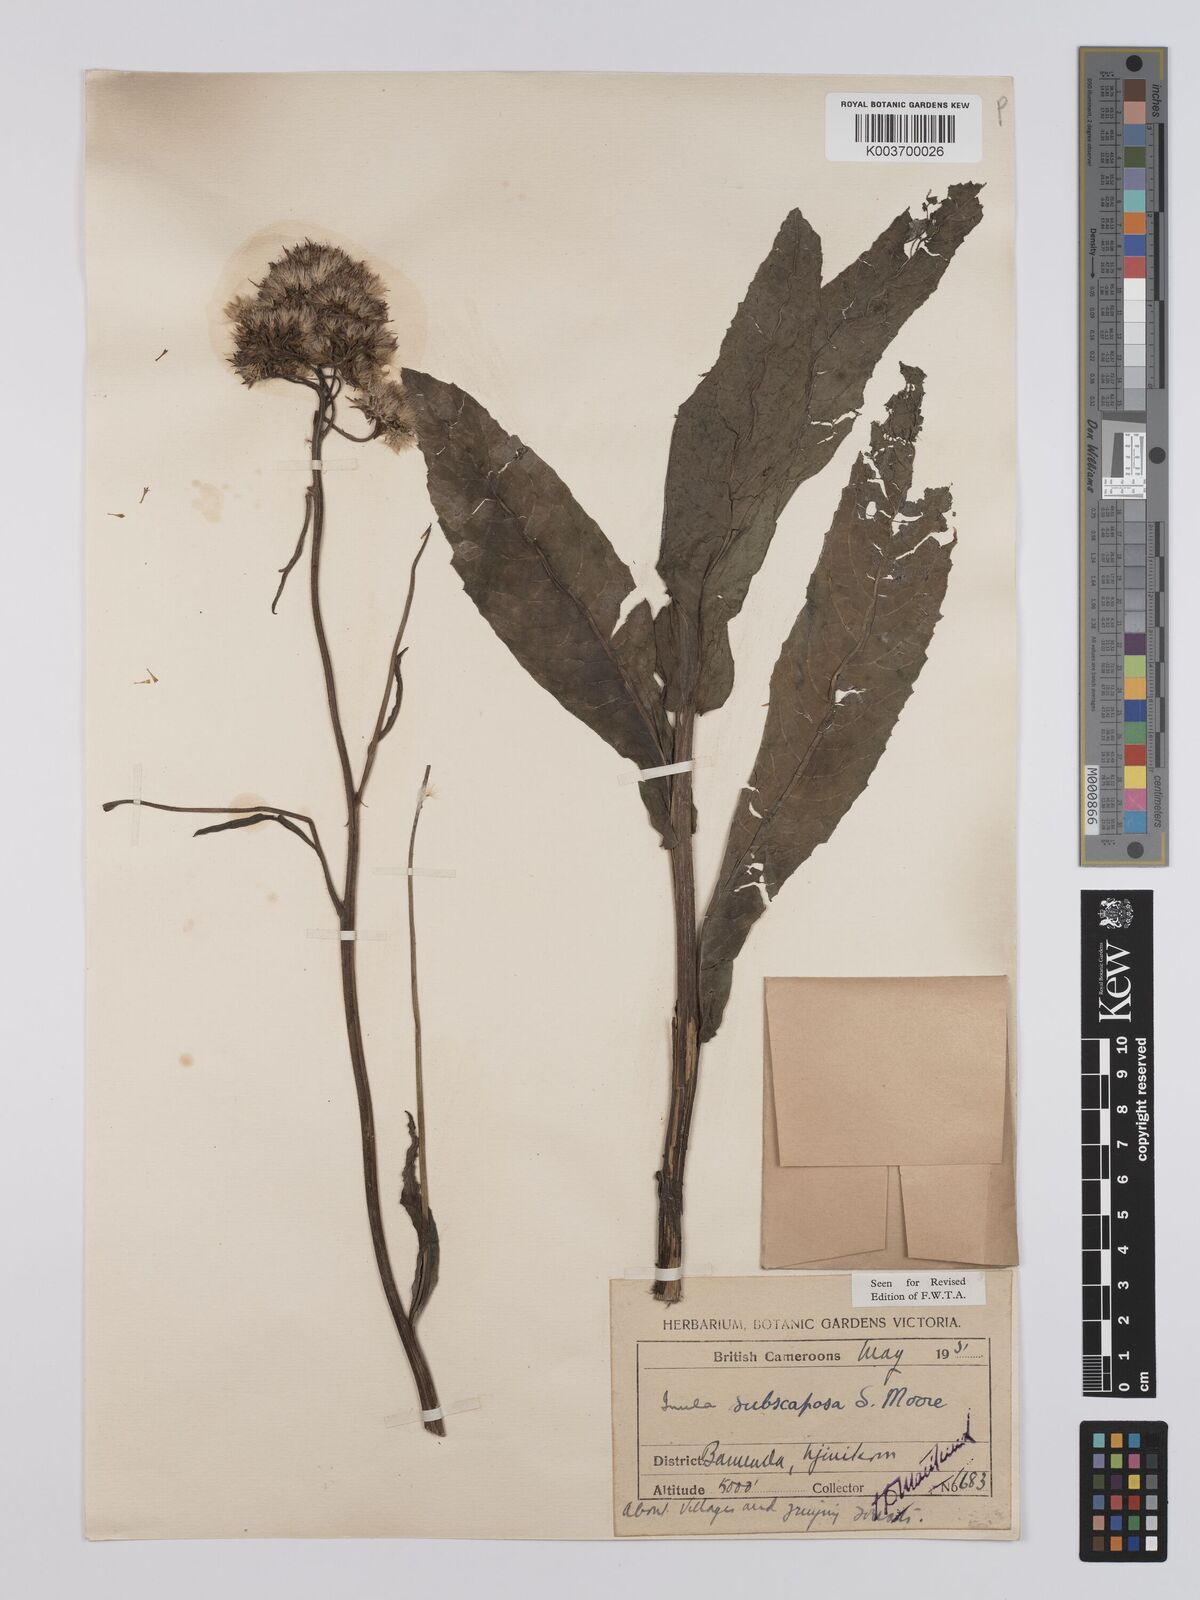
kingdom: Plantae
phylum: Tracheophyta
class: Magnoliopsida
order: Asterales
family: Asteraceae
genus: Monactinocephalus
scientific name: Monactinocephalus paniculatus
